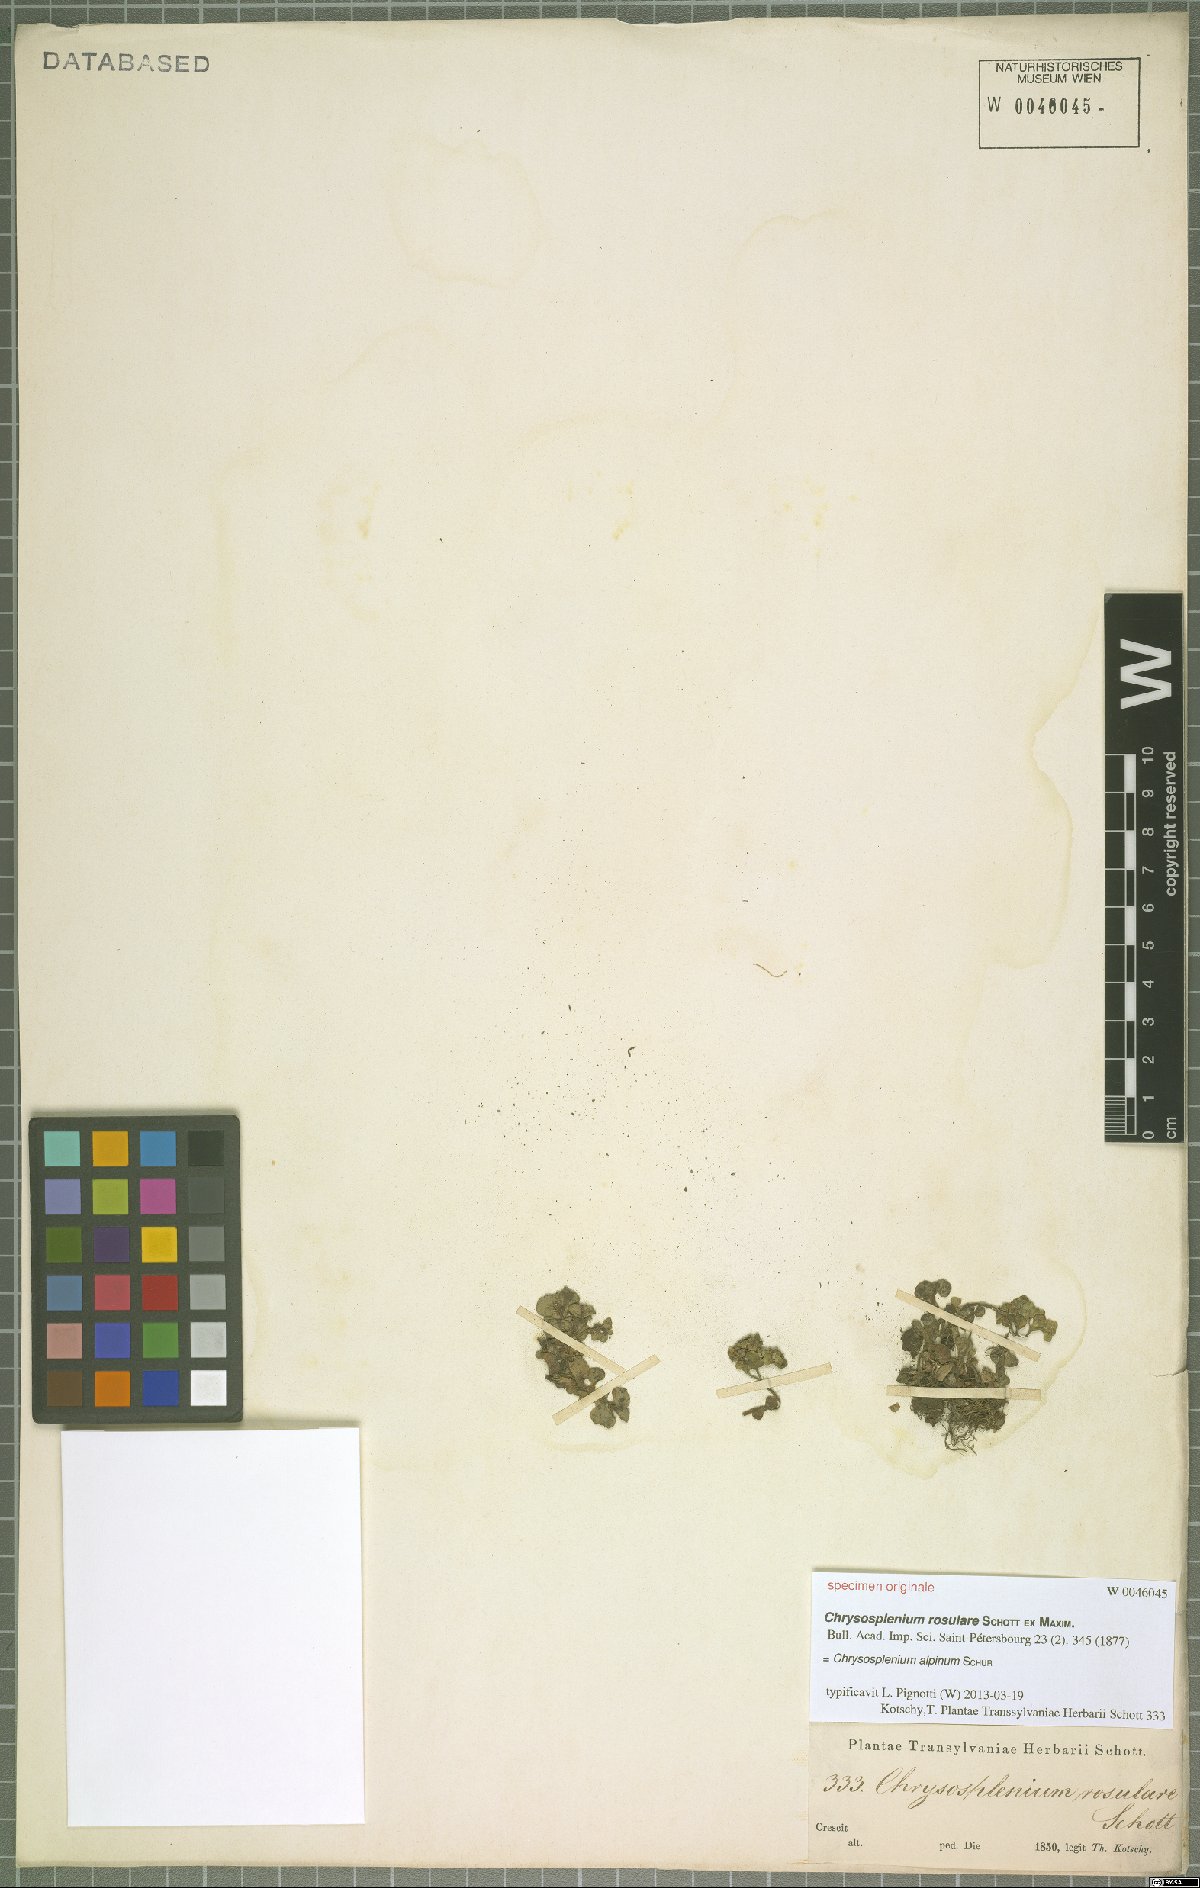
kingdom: Plantae
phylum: Tracheophyta
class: Magnoliopsida
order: Saxifragales
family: Saxifragaceae
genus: Chrysosplenium
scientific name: Chrysosplenium alpinum
